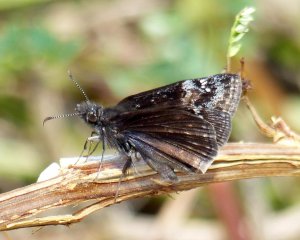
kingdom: Animalia
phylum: Arthropoda
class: Insecta
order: Lepidoptera
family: Hesperiidae
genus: Gesta
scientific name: Gesta
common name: Wild Indigo Duskywing
